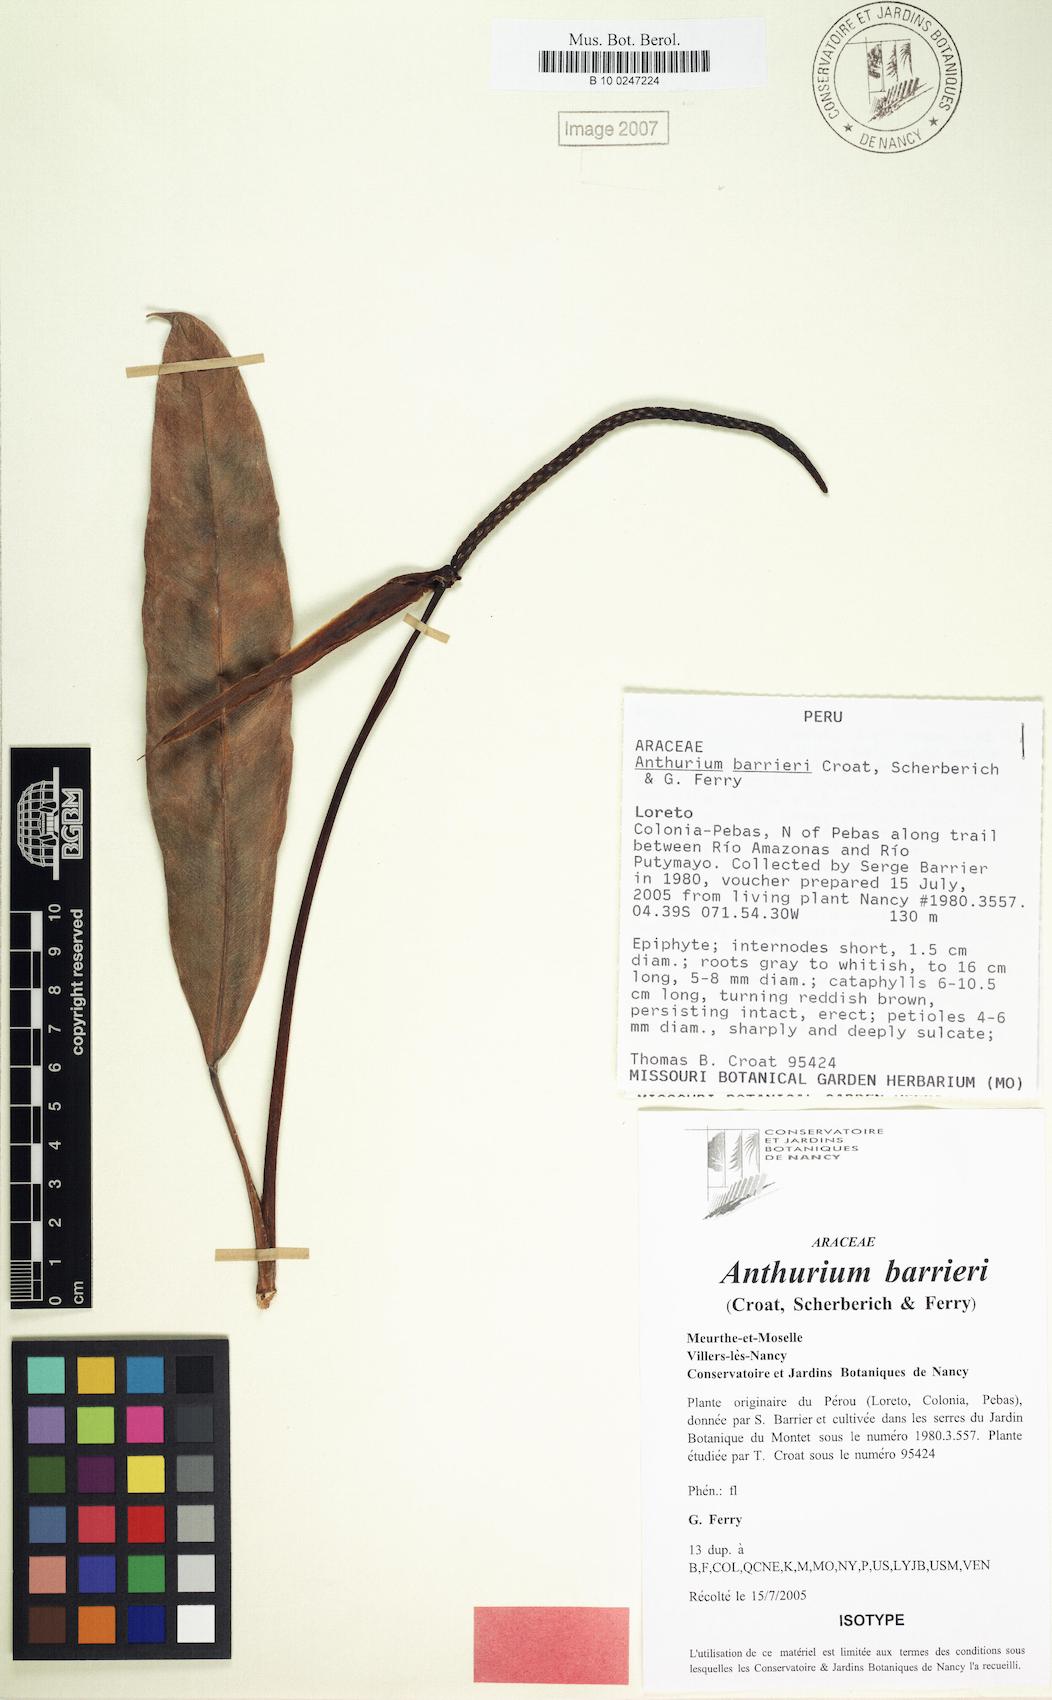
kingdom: Plantae
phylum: Tracheophyta
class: Liliopsida
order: Alismatales
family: Araceae
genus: Anthurium
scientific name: Anthurium barrieri
